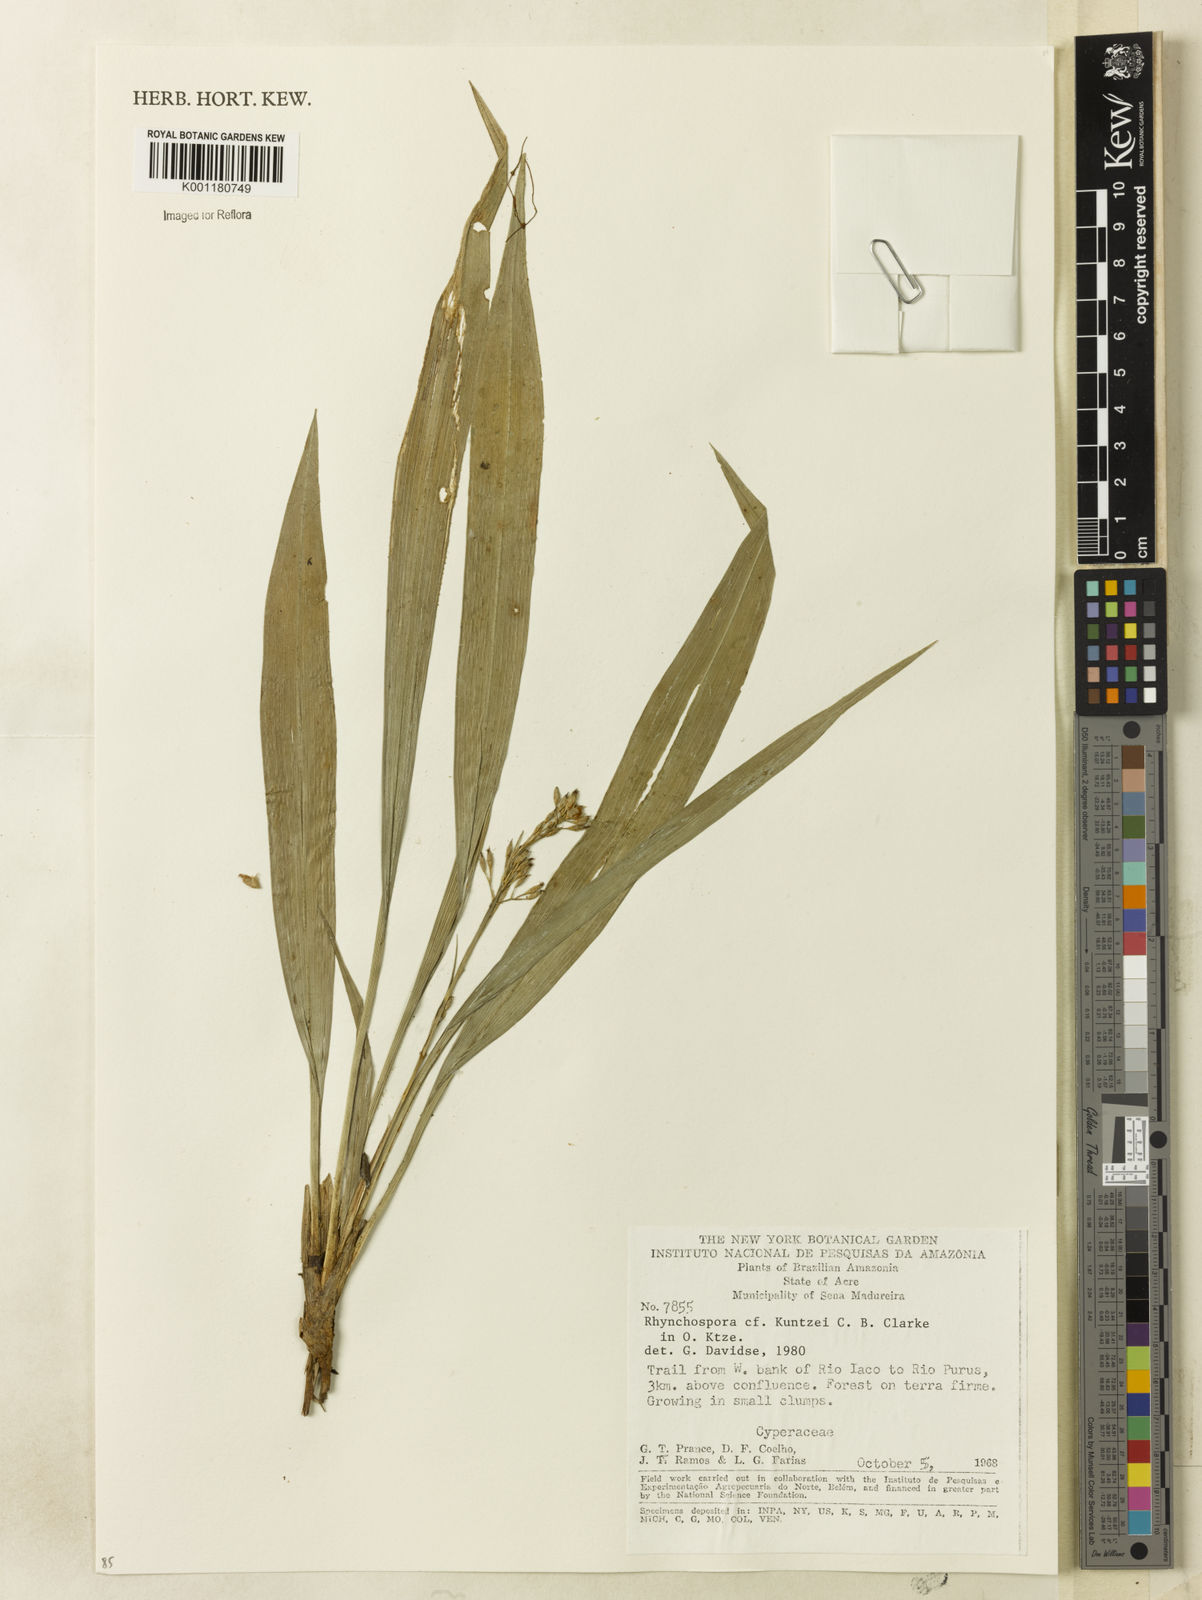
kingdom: Plantae
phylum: Tracheophyta
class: Liliopsida
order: Poales
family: Cyperaceae
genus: Rhynchospora
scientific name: Rhynchospora
